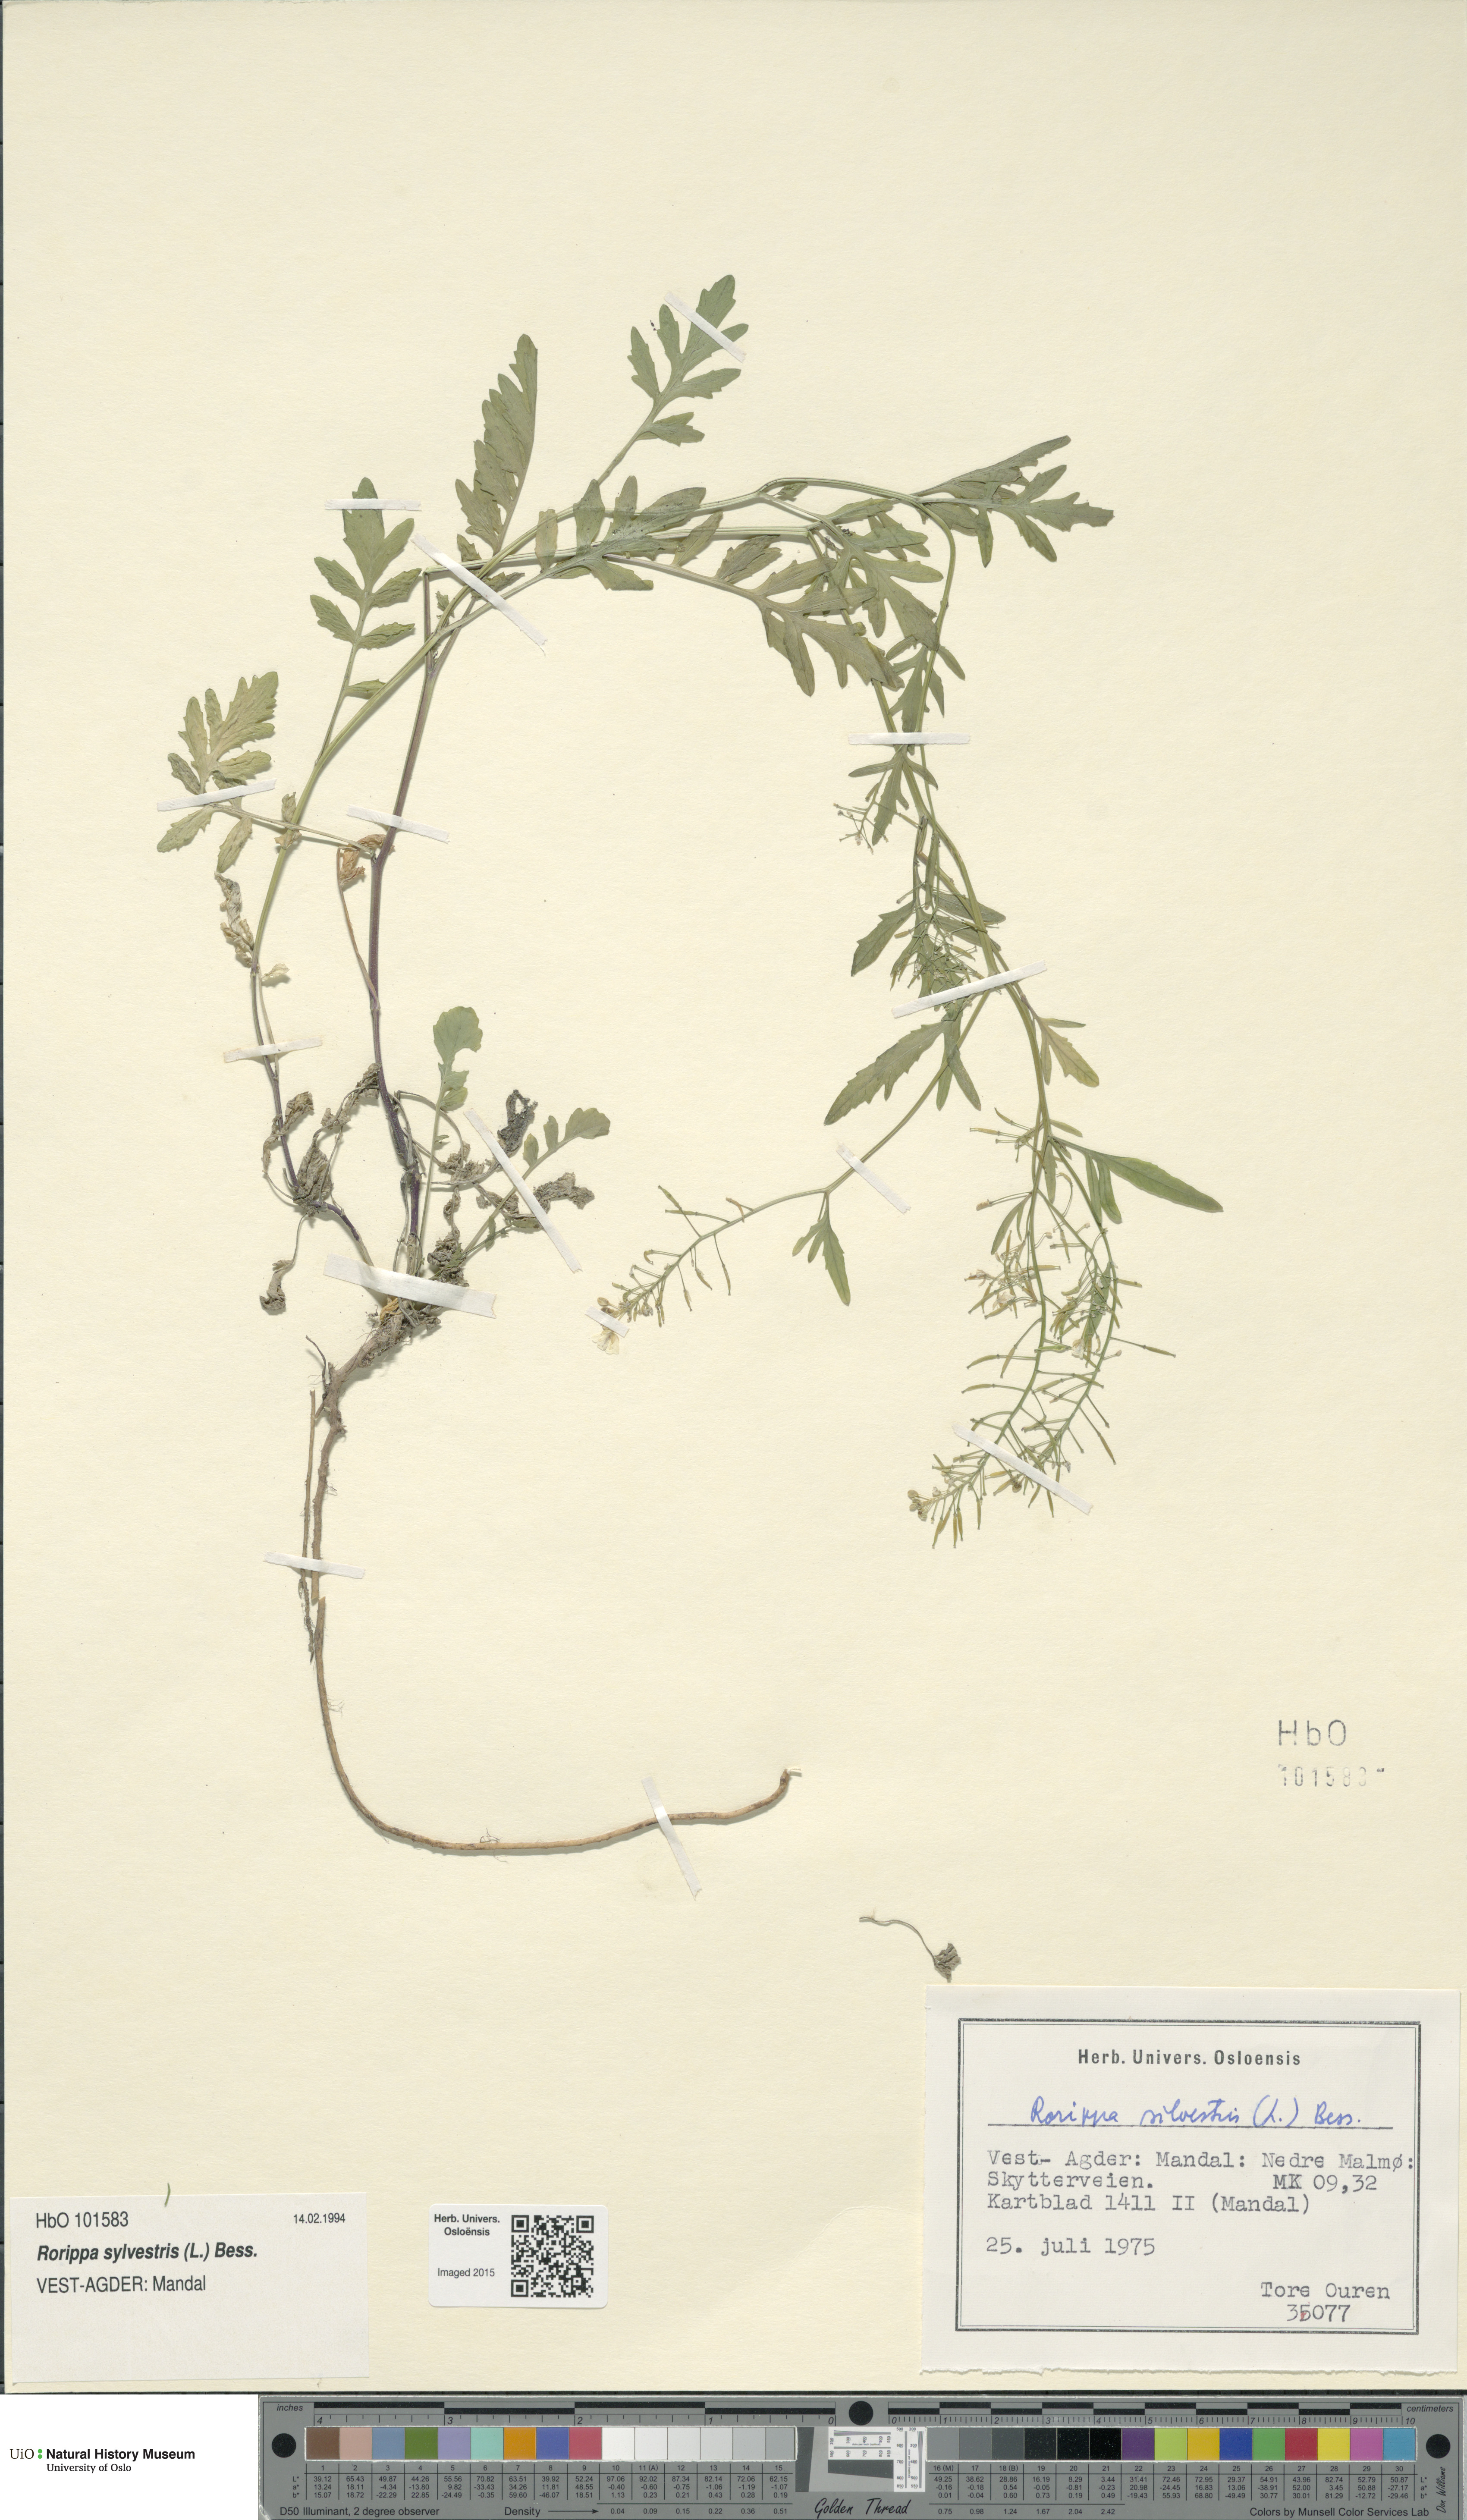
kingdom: Plantae
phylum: Tracheophyta
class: Magnoliopsida
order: Brassicales
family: Brassicaceae
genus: Rorippa
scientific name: Rorippa sylvestris
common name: Creeping yellowcress
